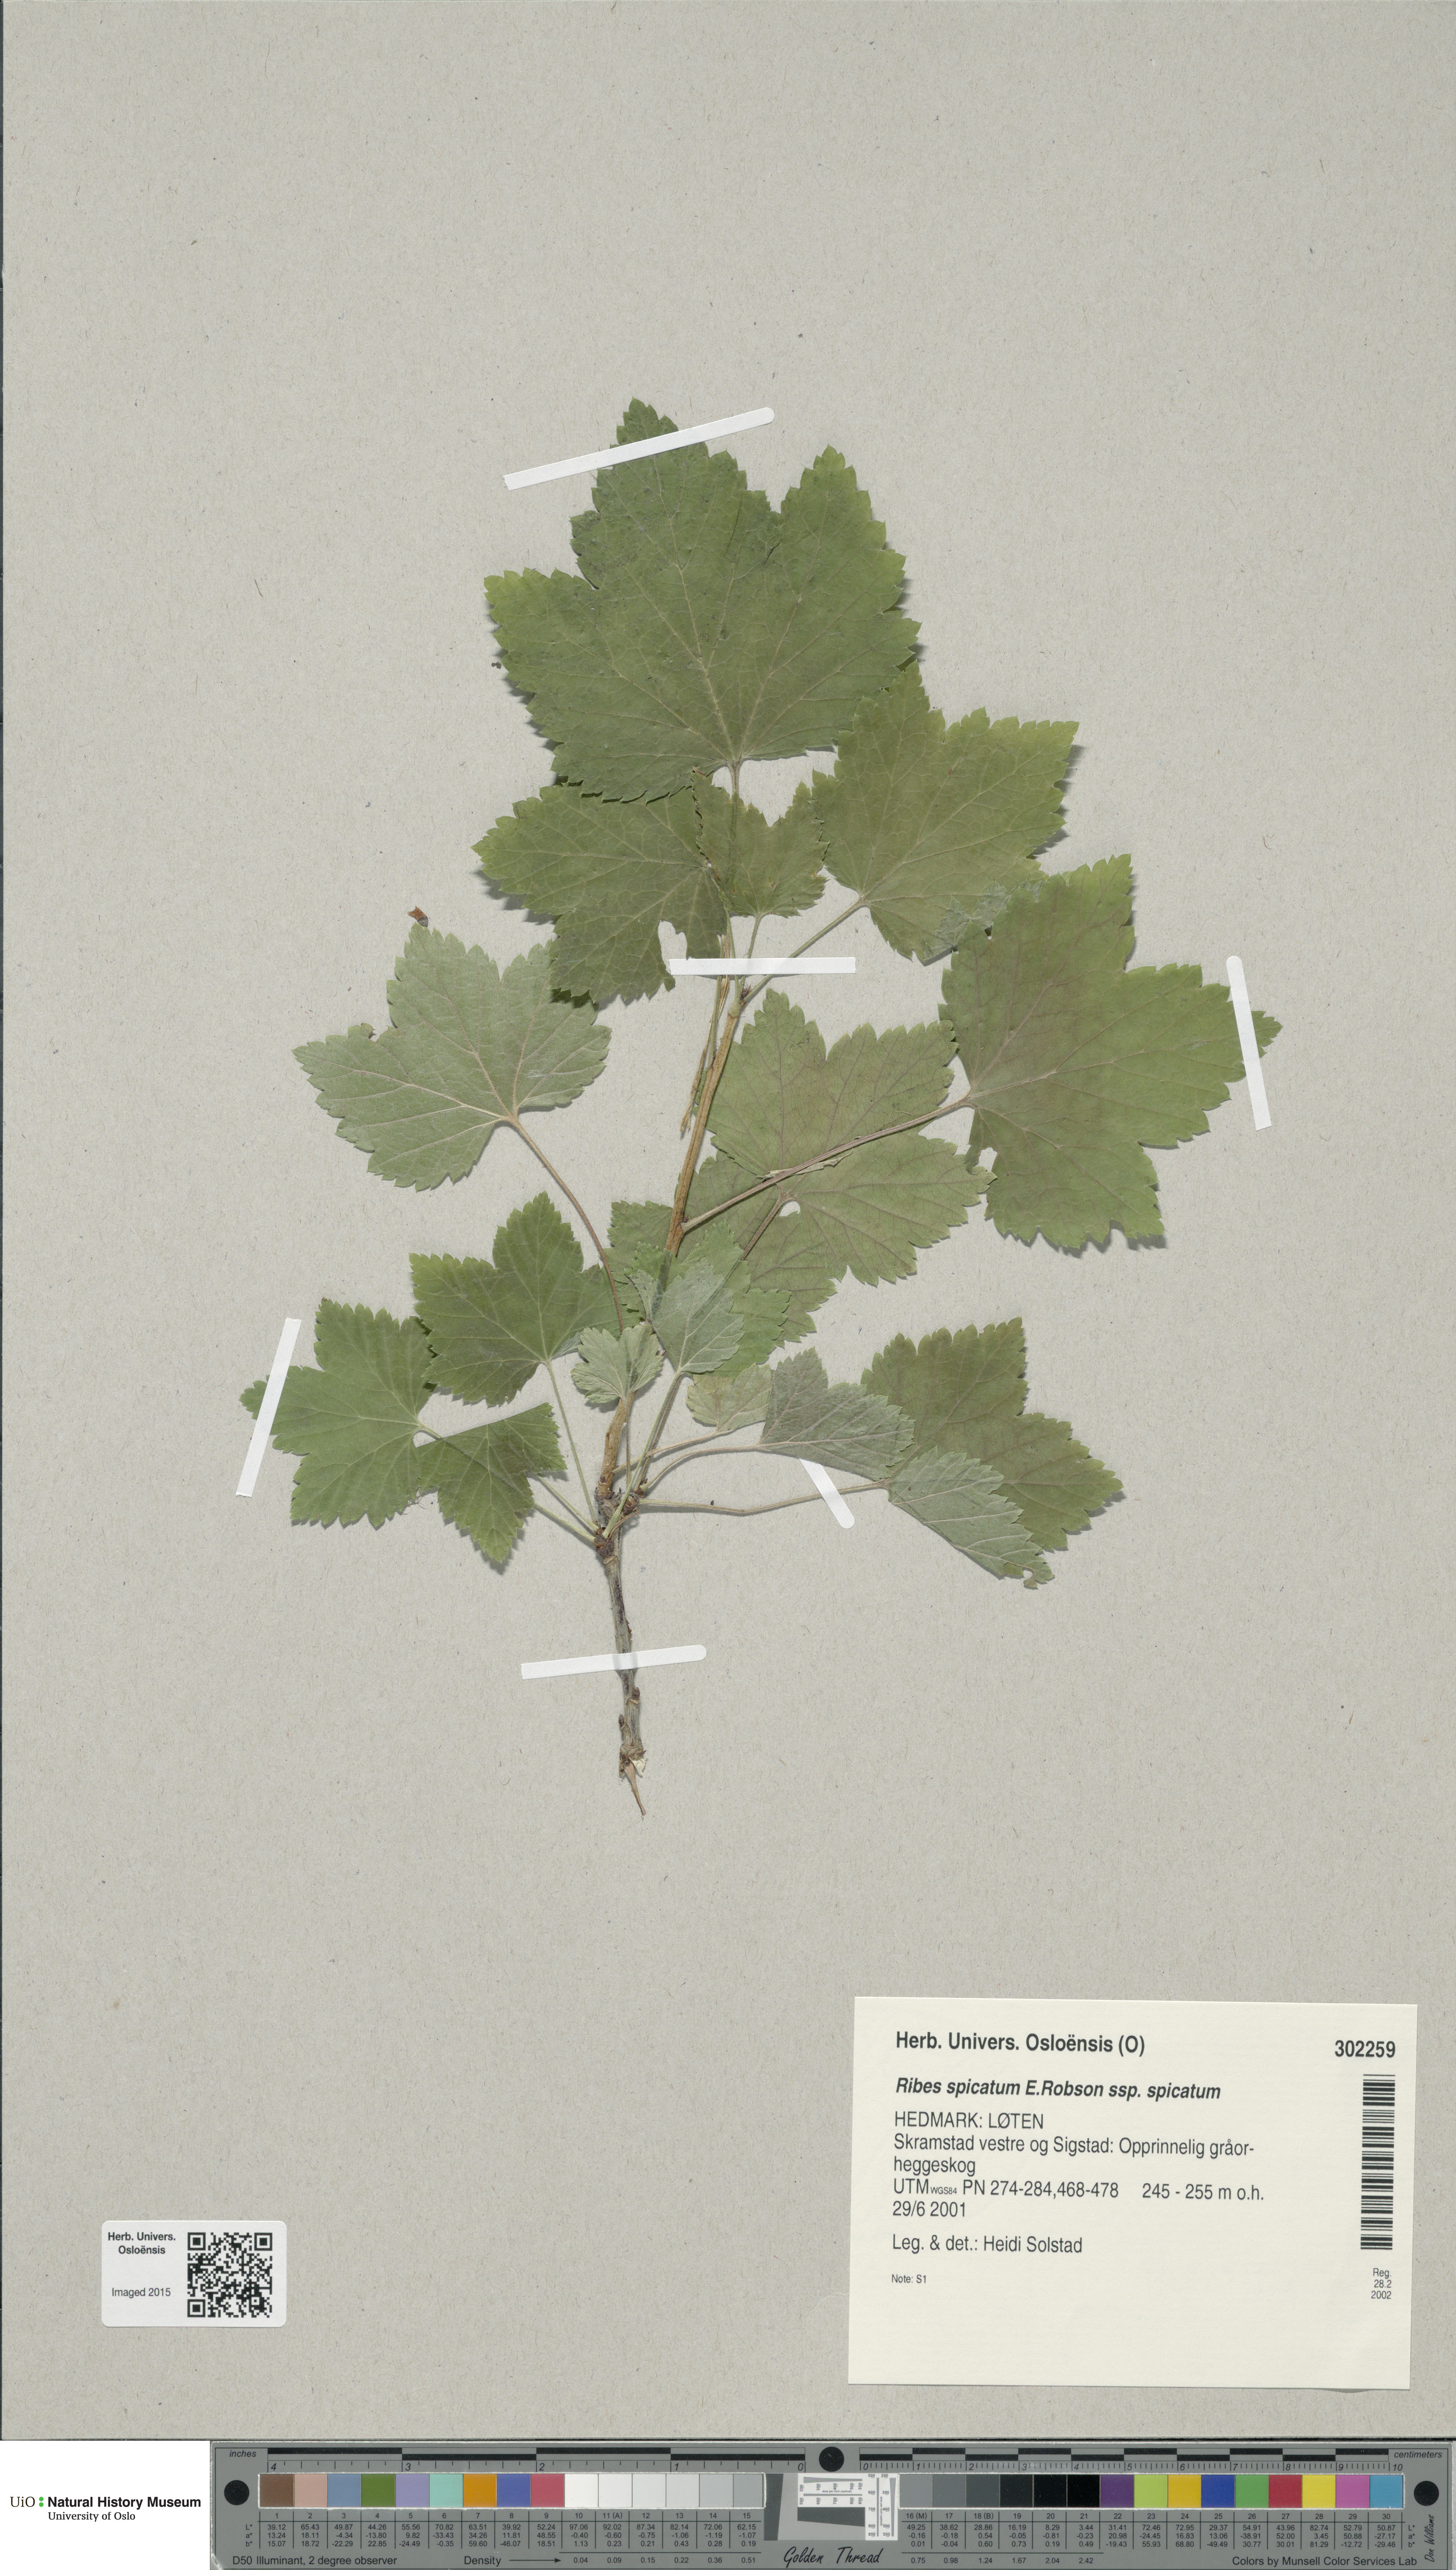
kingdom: Plantae
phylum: Tracheophyta
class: Magnoliopsida
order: Saxifragales
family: Grossulariaceae
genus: Ribes
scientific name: Ribes spicatum
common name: Downy currant
